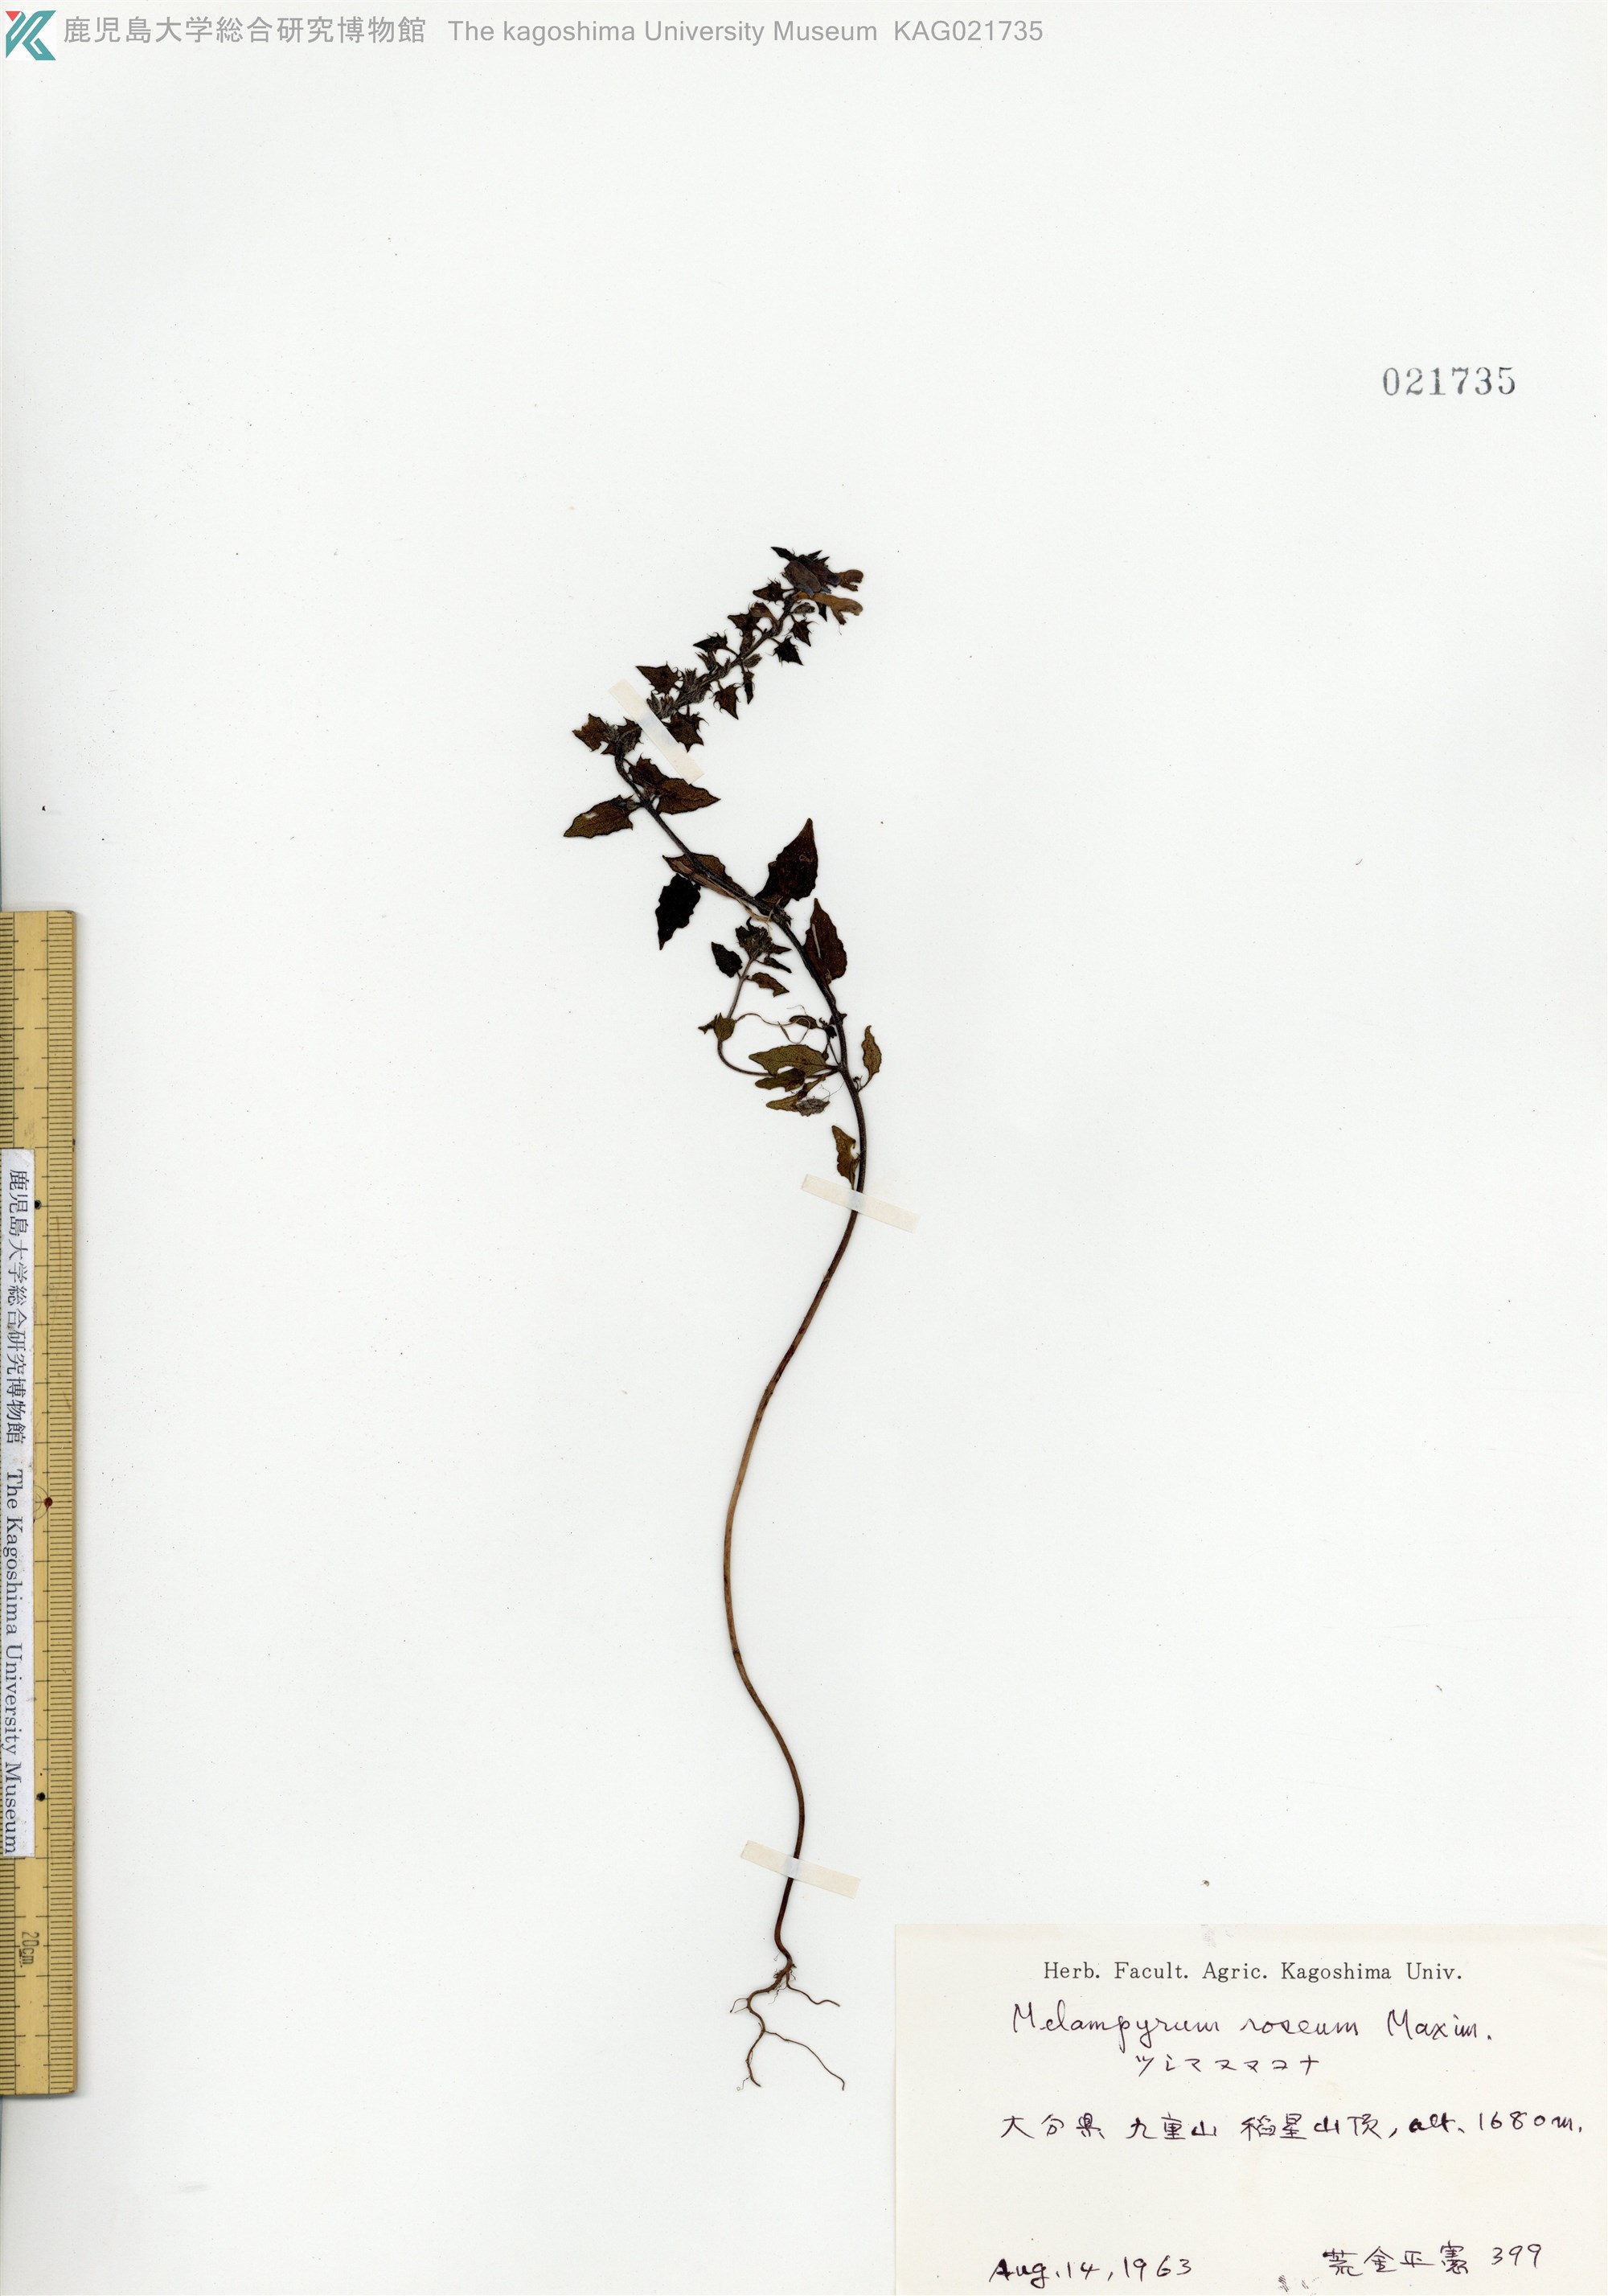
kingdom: Plantae
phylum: Tracheophyta
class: Magnoliopsida
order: Lamiales
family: Orobanchaceae
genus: Melampyrum
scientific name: Melampyrum roseum
